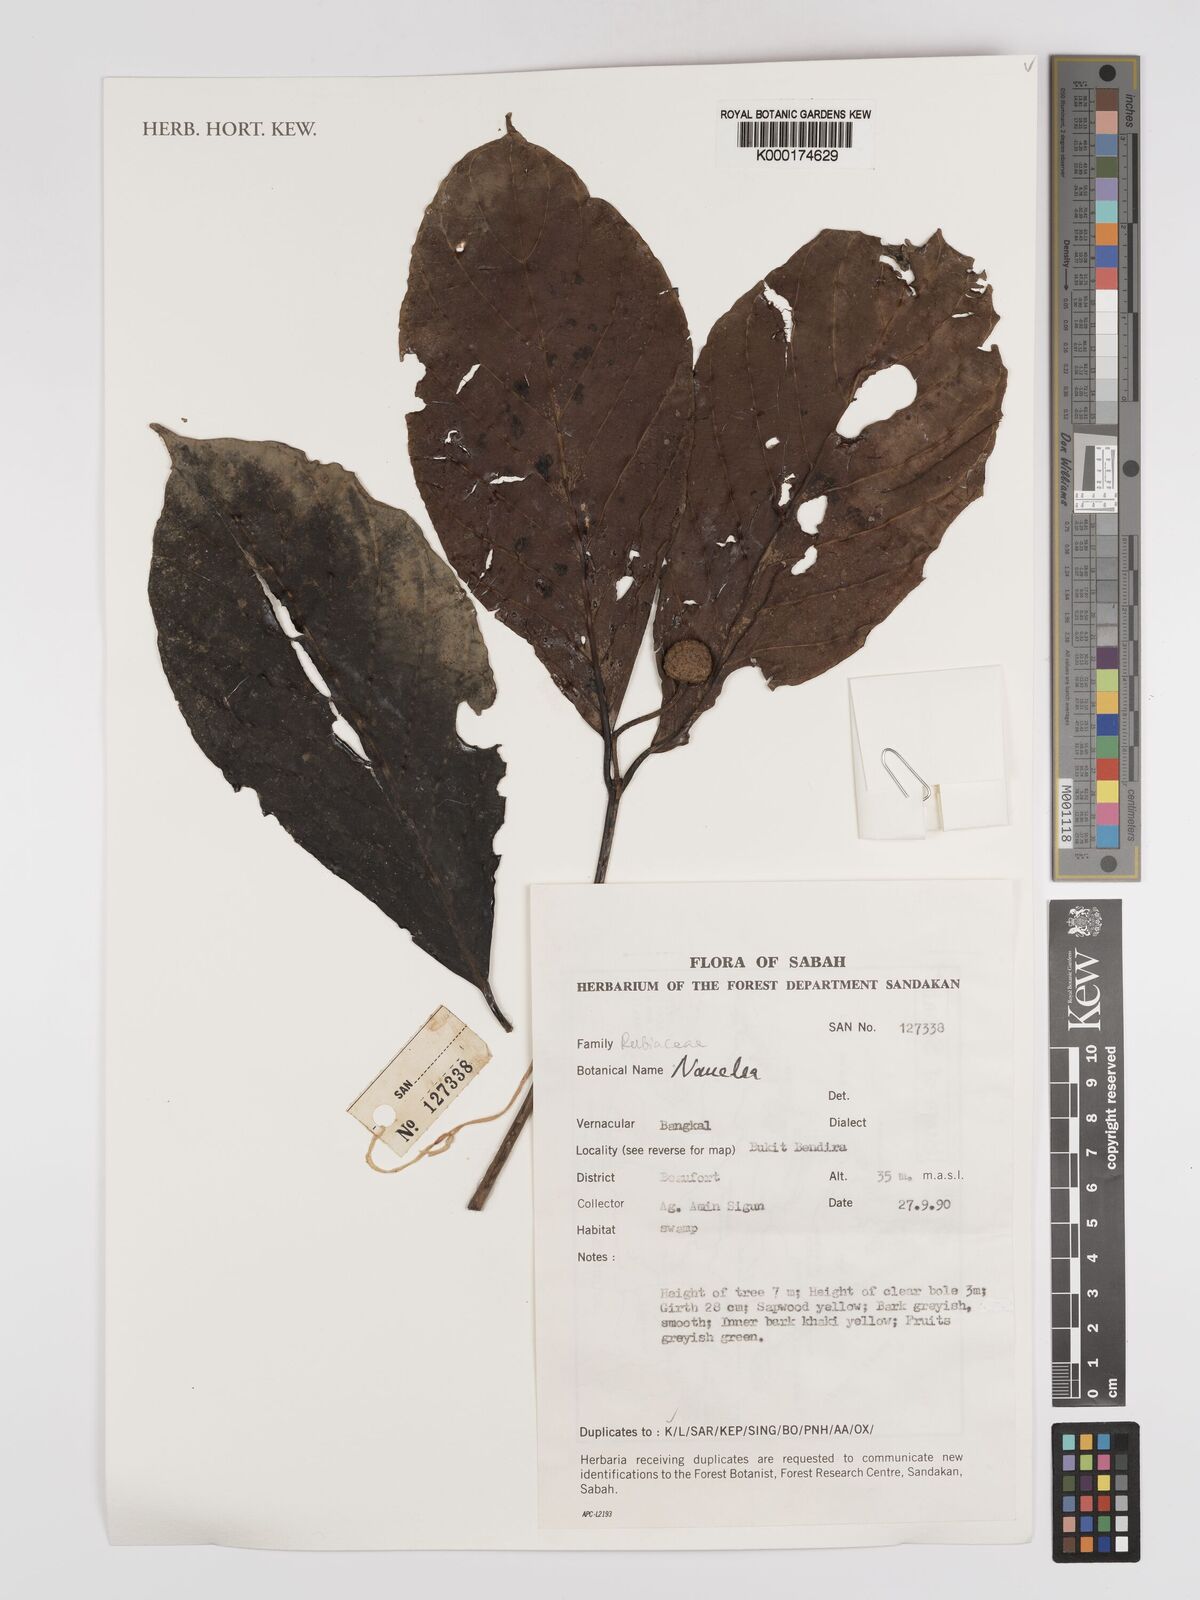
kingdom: Plantae
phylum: Tracheophyta
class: Magnoliopsida
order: Gentianales
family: Rubiaceae
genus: Nauclea
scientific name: Nauclea
